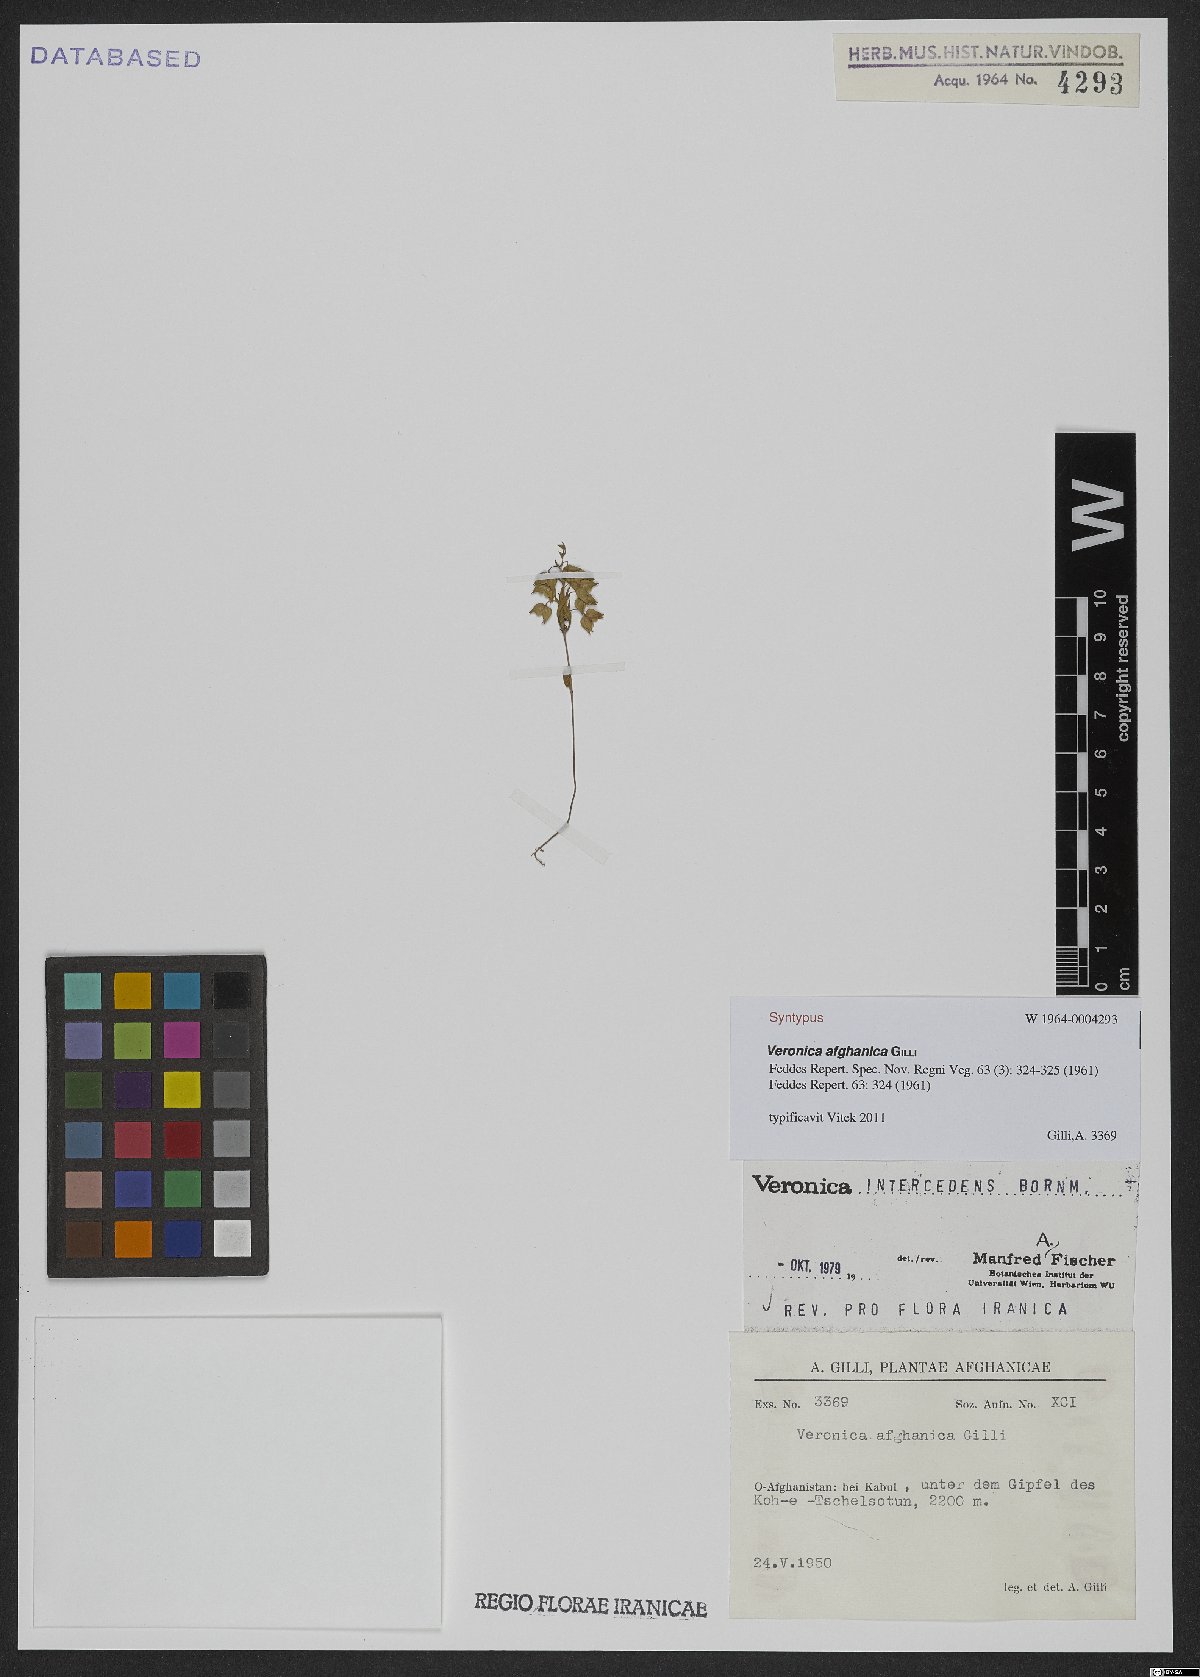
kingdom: Plantae
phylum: Tracheophyta
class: Magnoliopsida
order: Lamiales
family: Plantaginaceae
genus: Veronica
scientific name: Veronica intercedens
